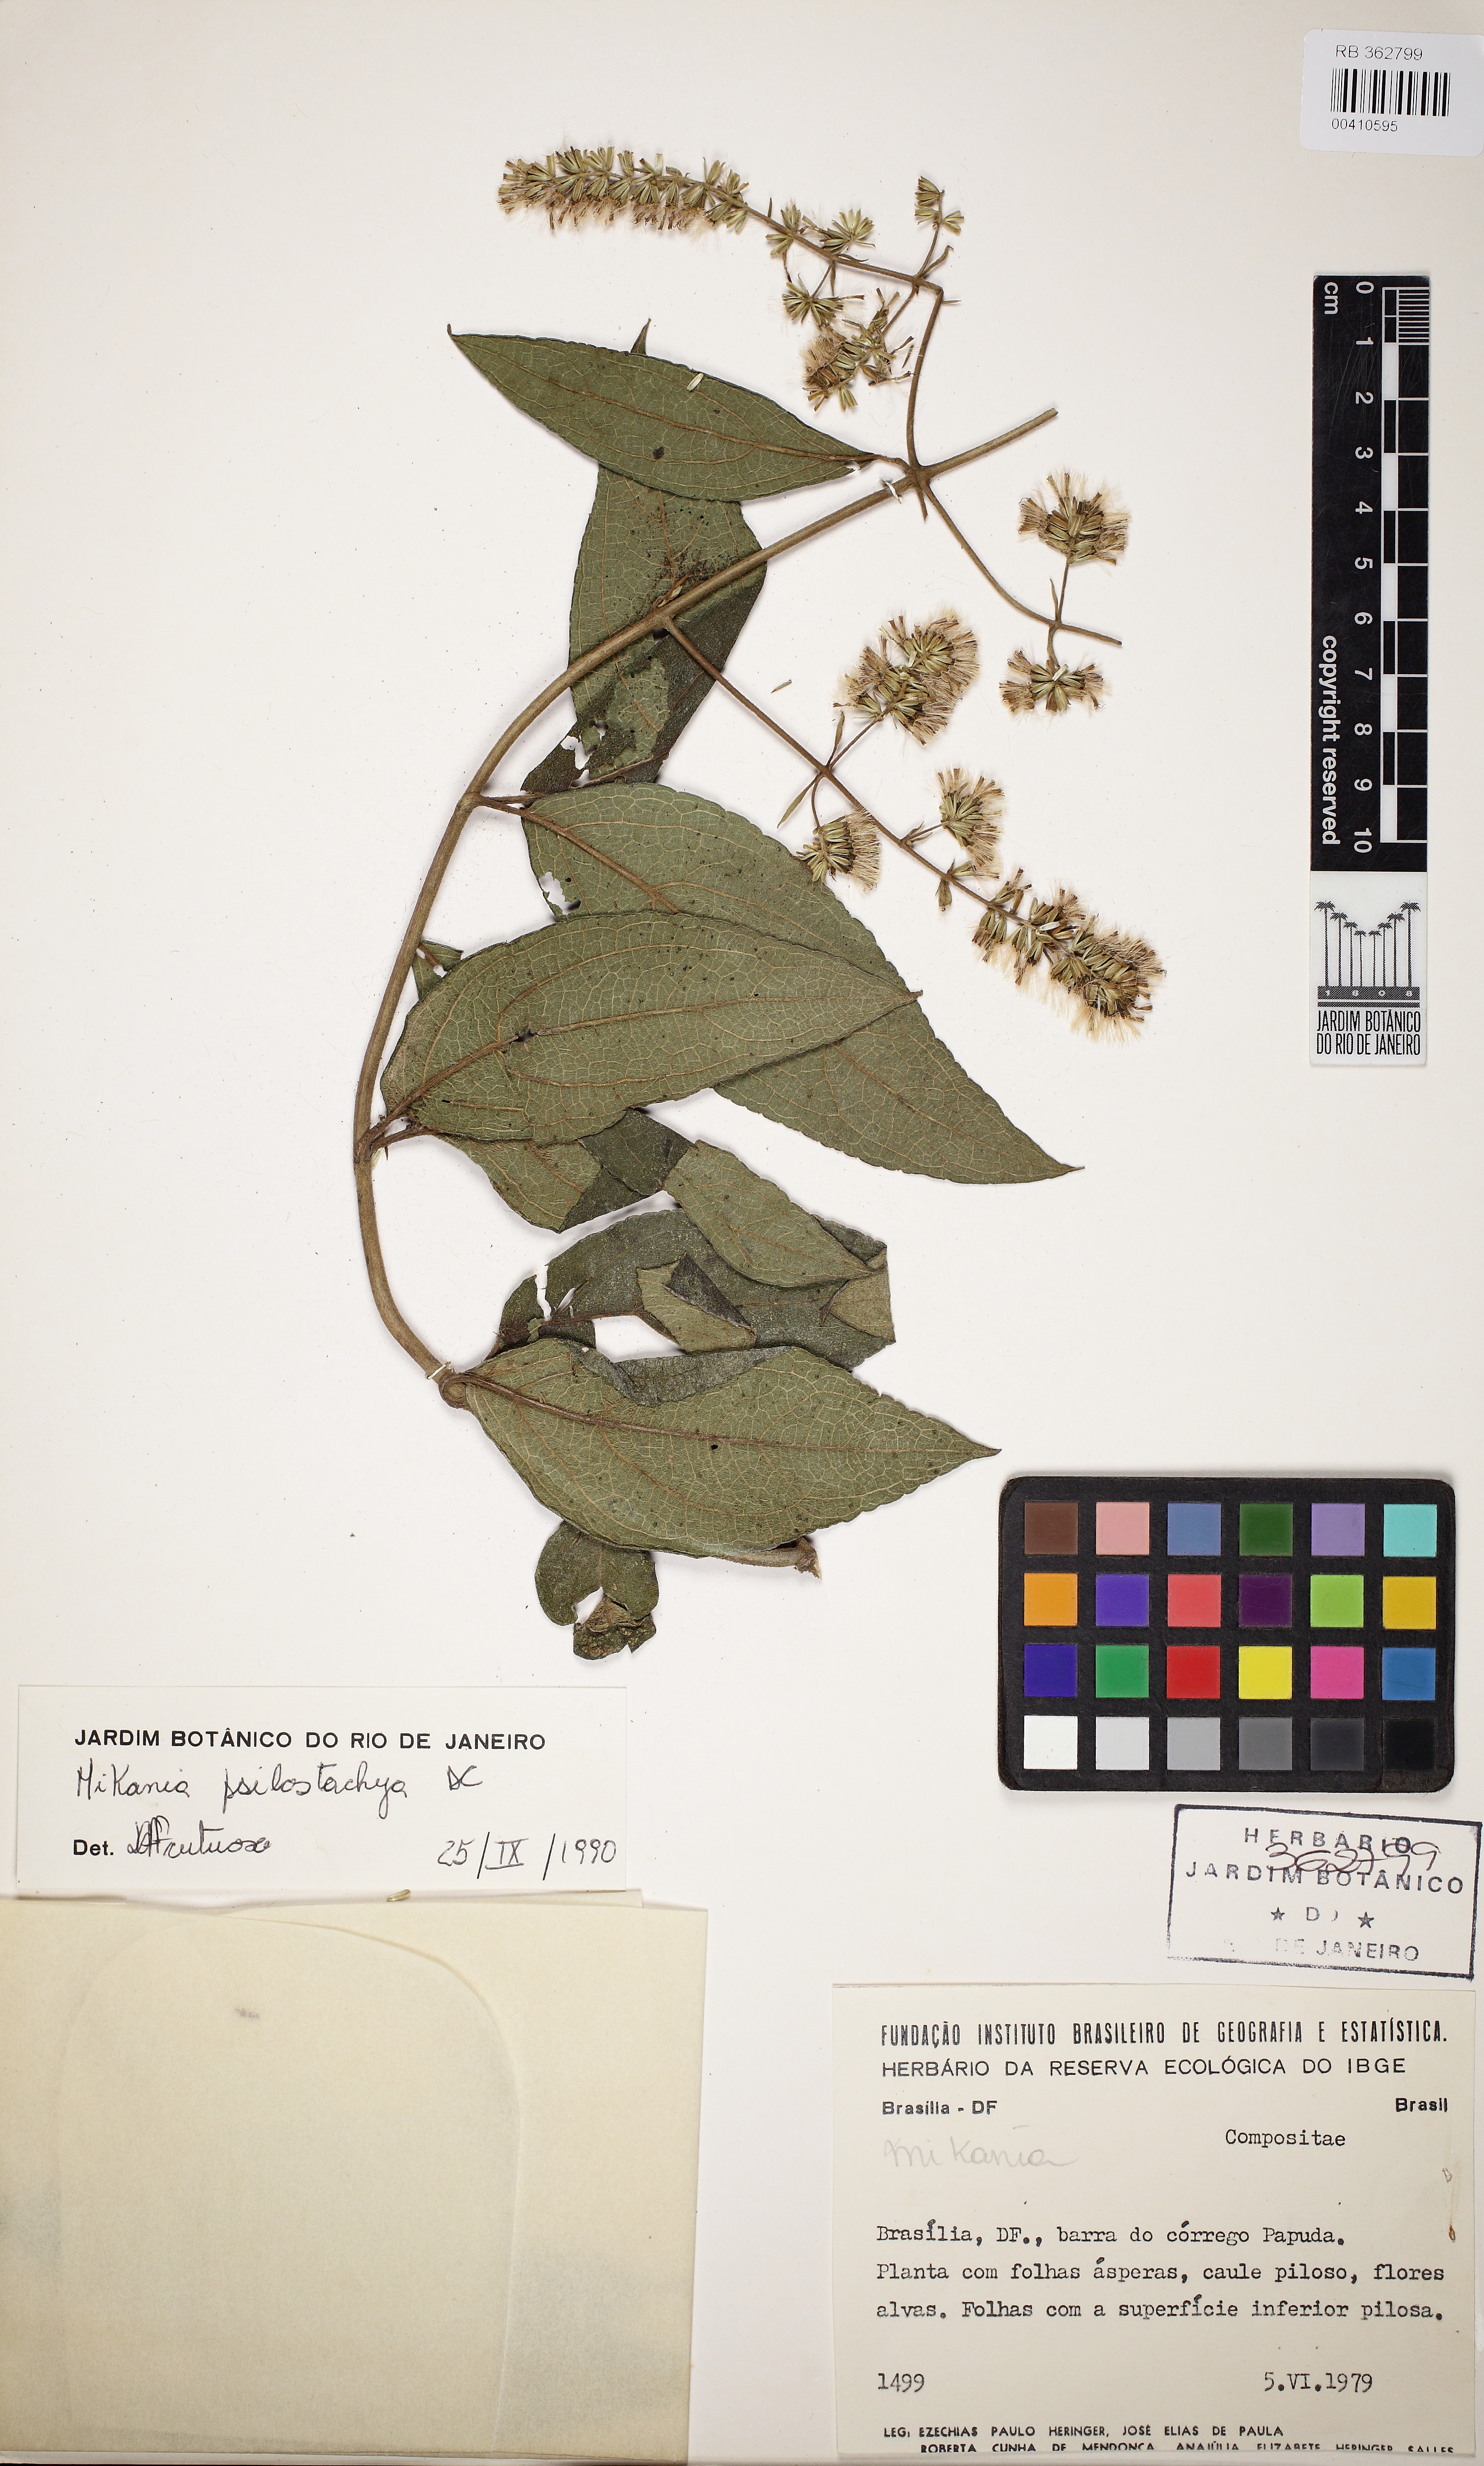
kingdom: Plantae
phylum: Tracheophyta
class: Magnoliopsida
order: Asterales
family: Asteraceae
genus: Mikania
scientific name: Mikania psilostachya
